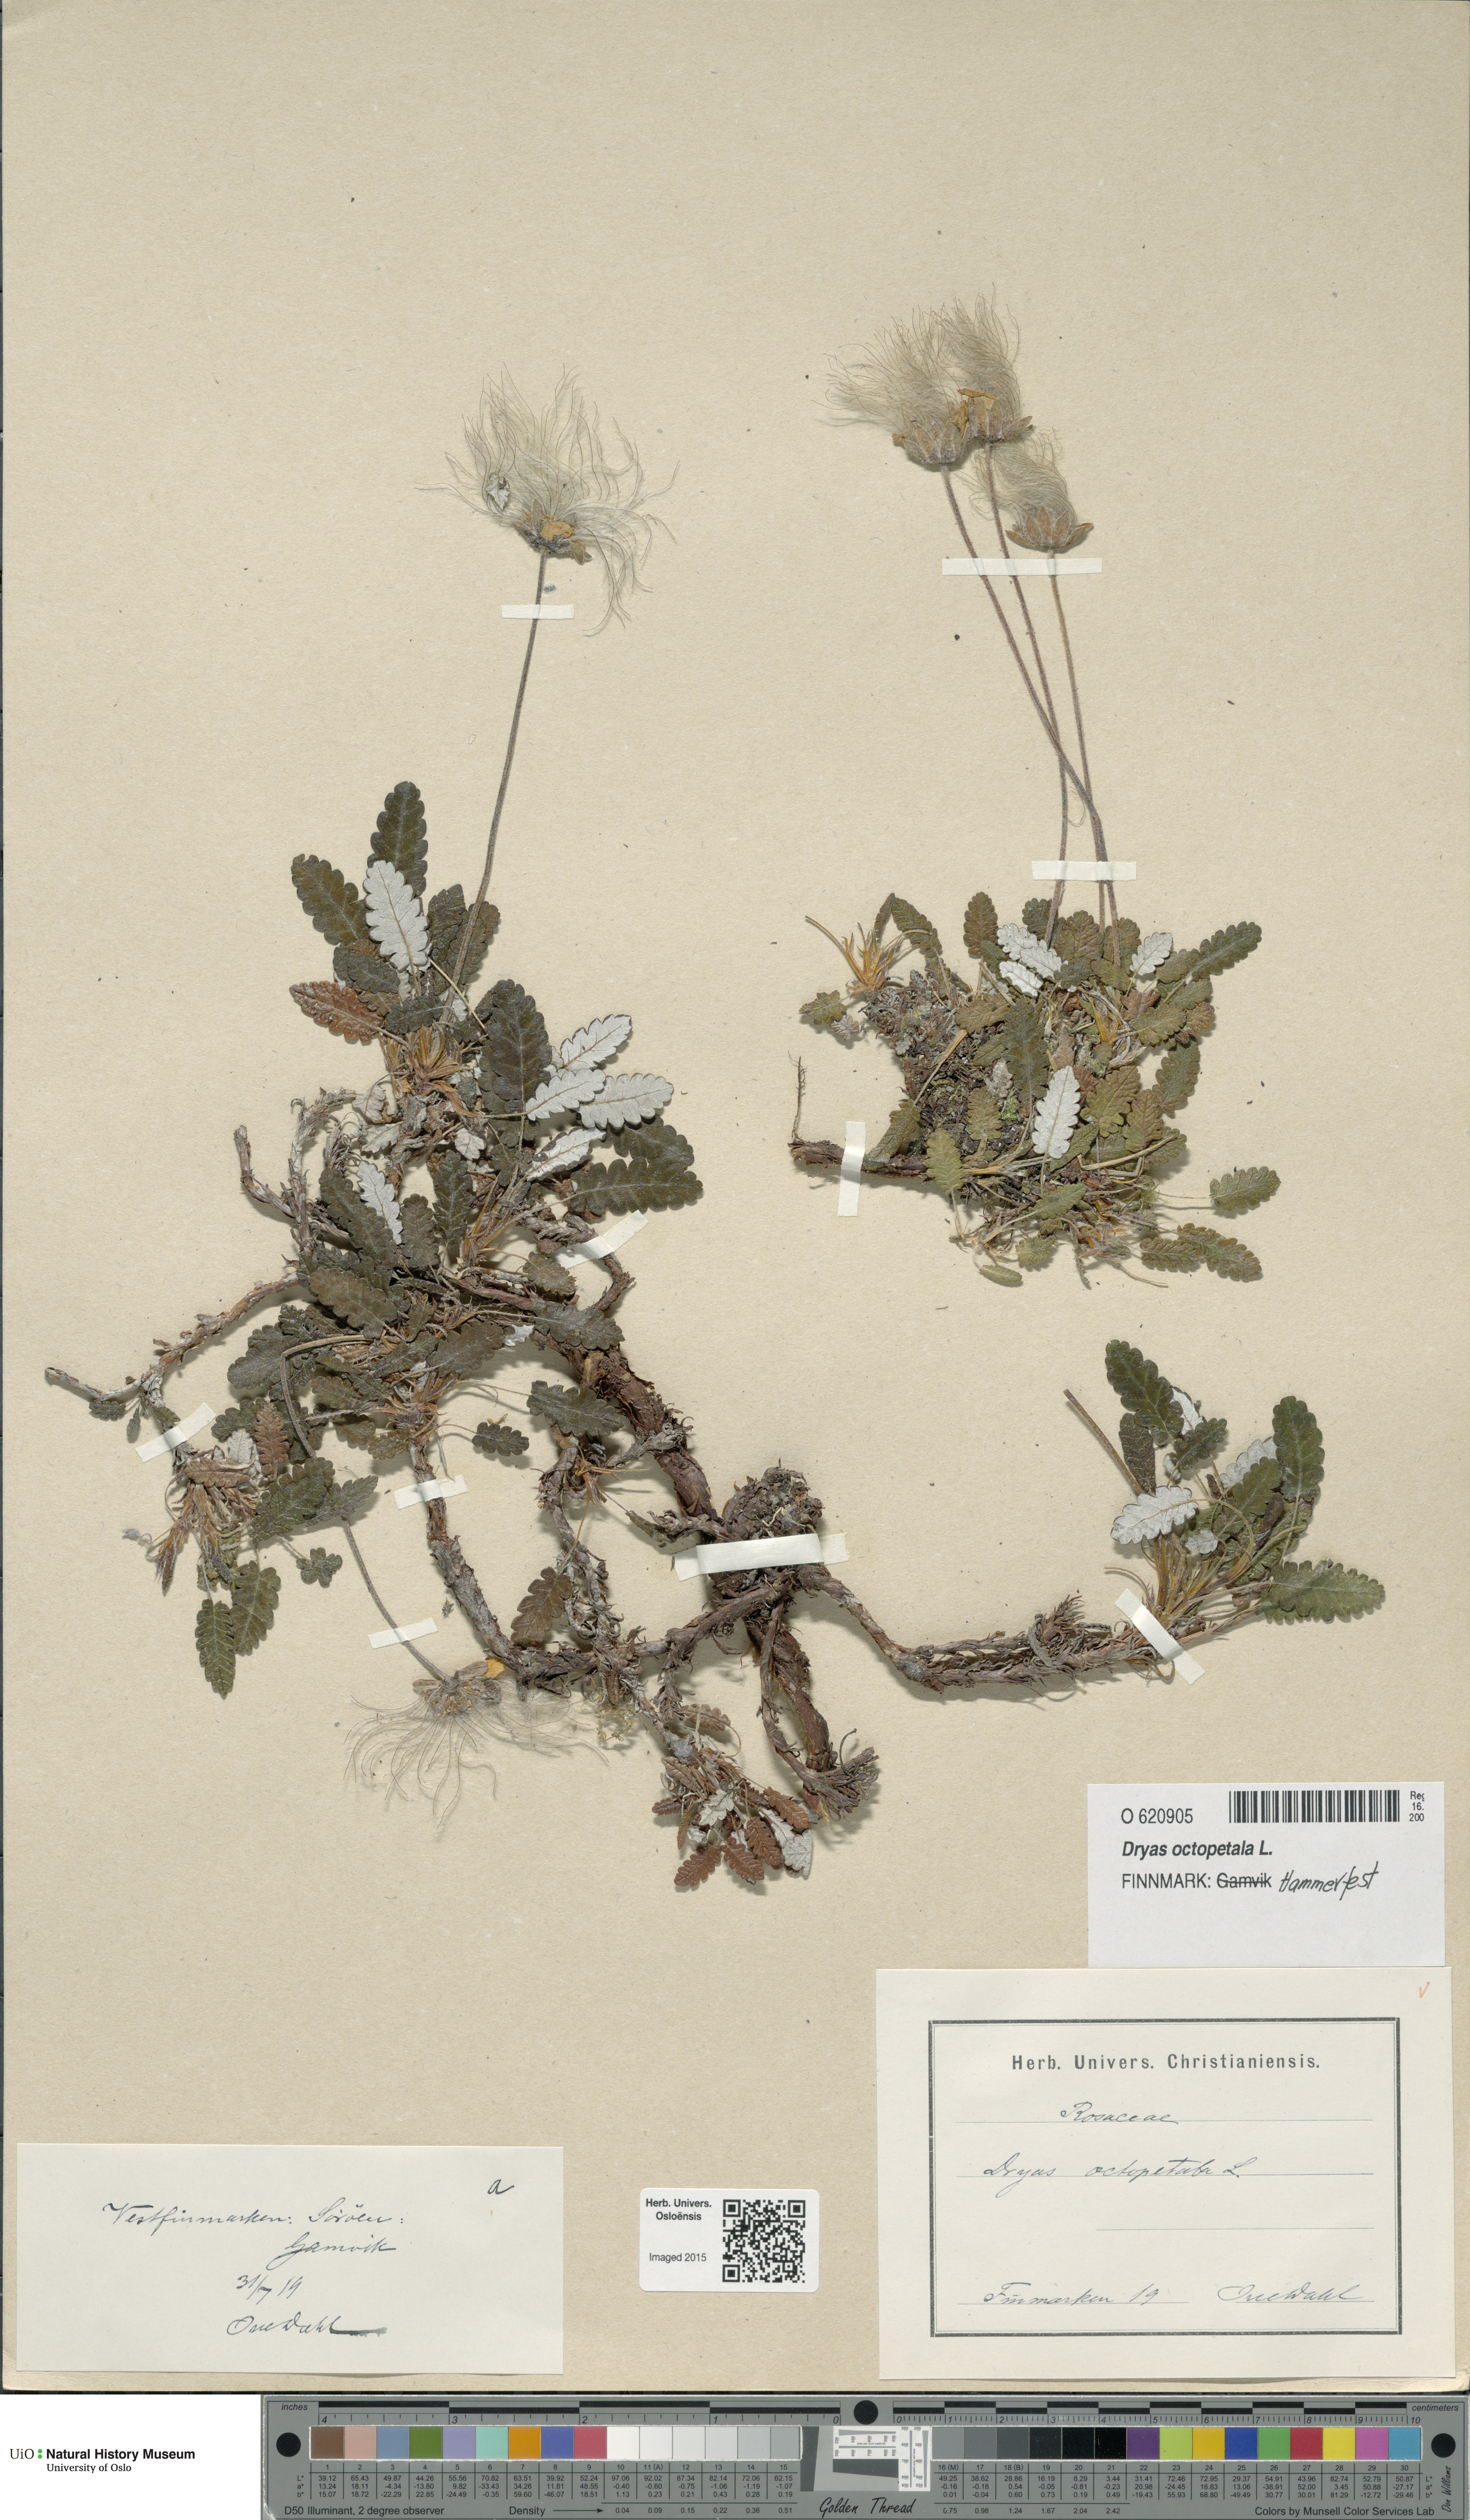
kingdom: Plantae
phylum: Tracheophyta
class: Magnoliopsida
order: Rosales
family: Rosaceae
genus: Dryas
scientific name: Dryas octopetala
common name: Eight-petal mountain-avens
